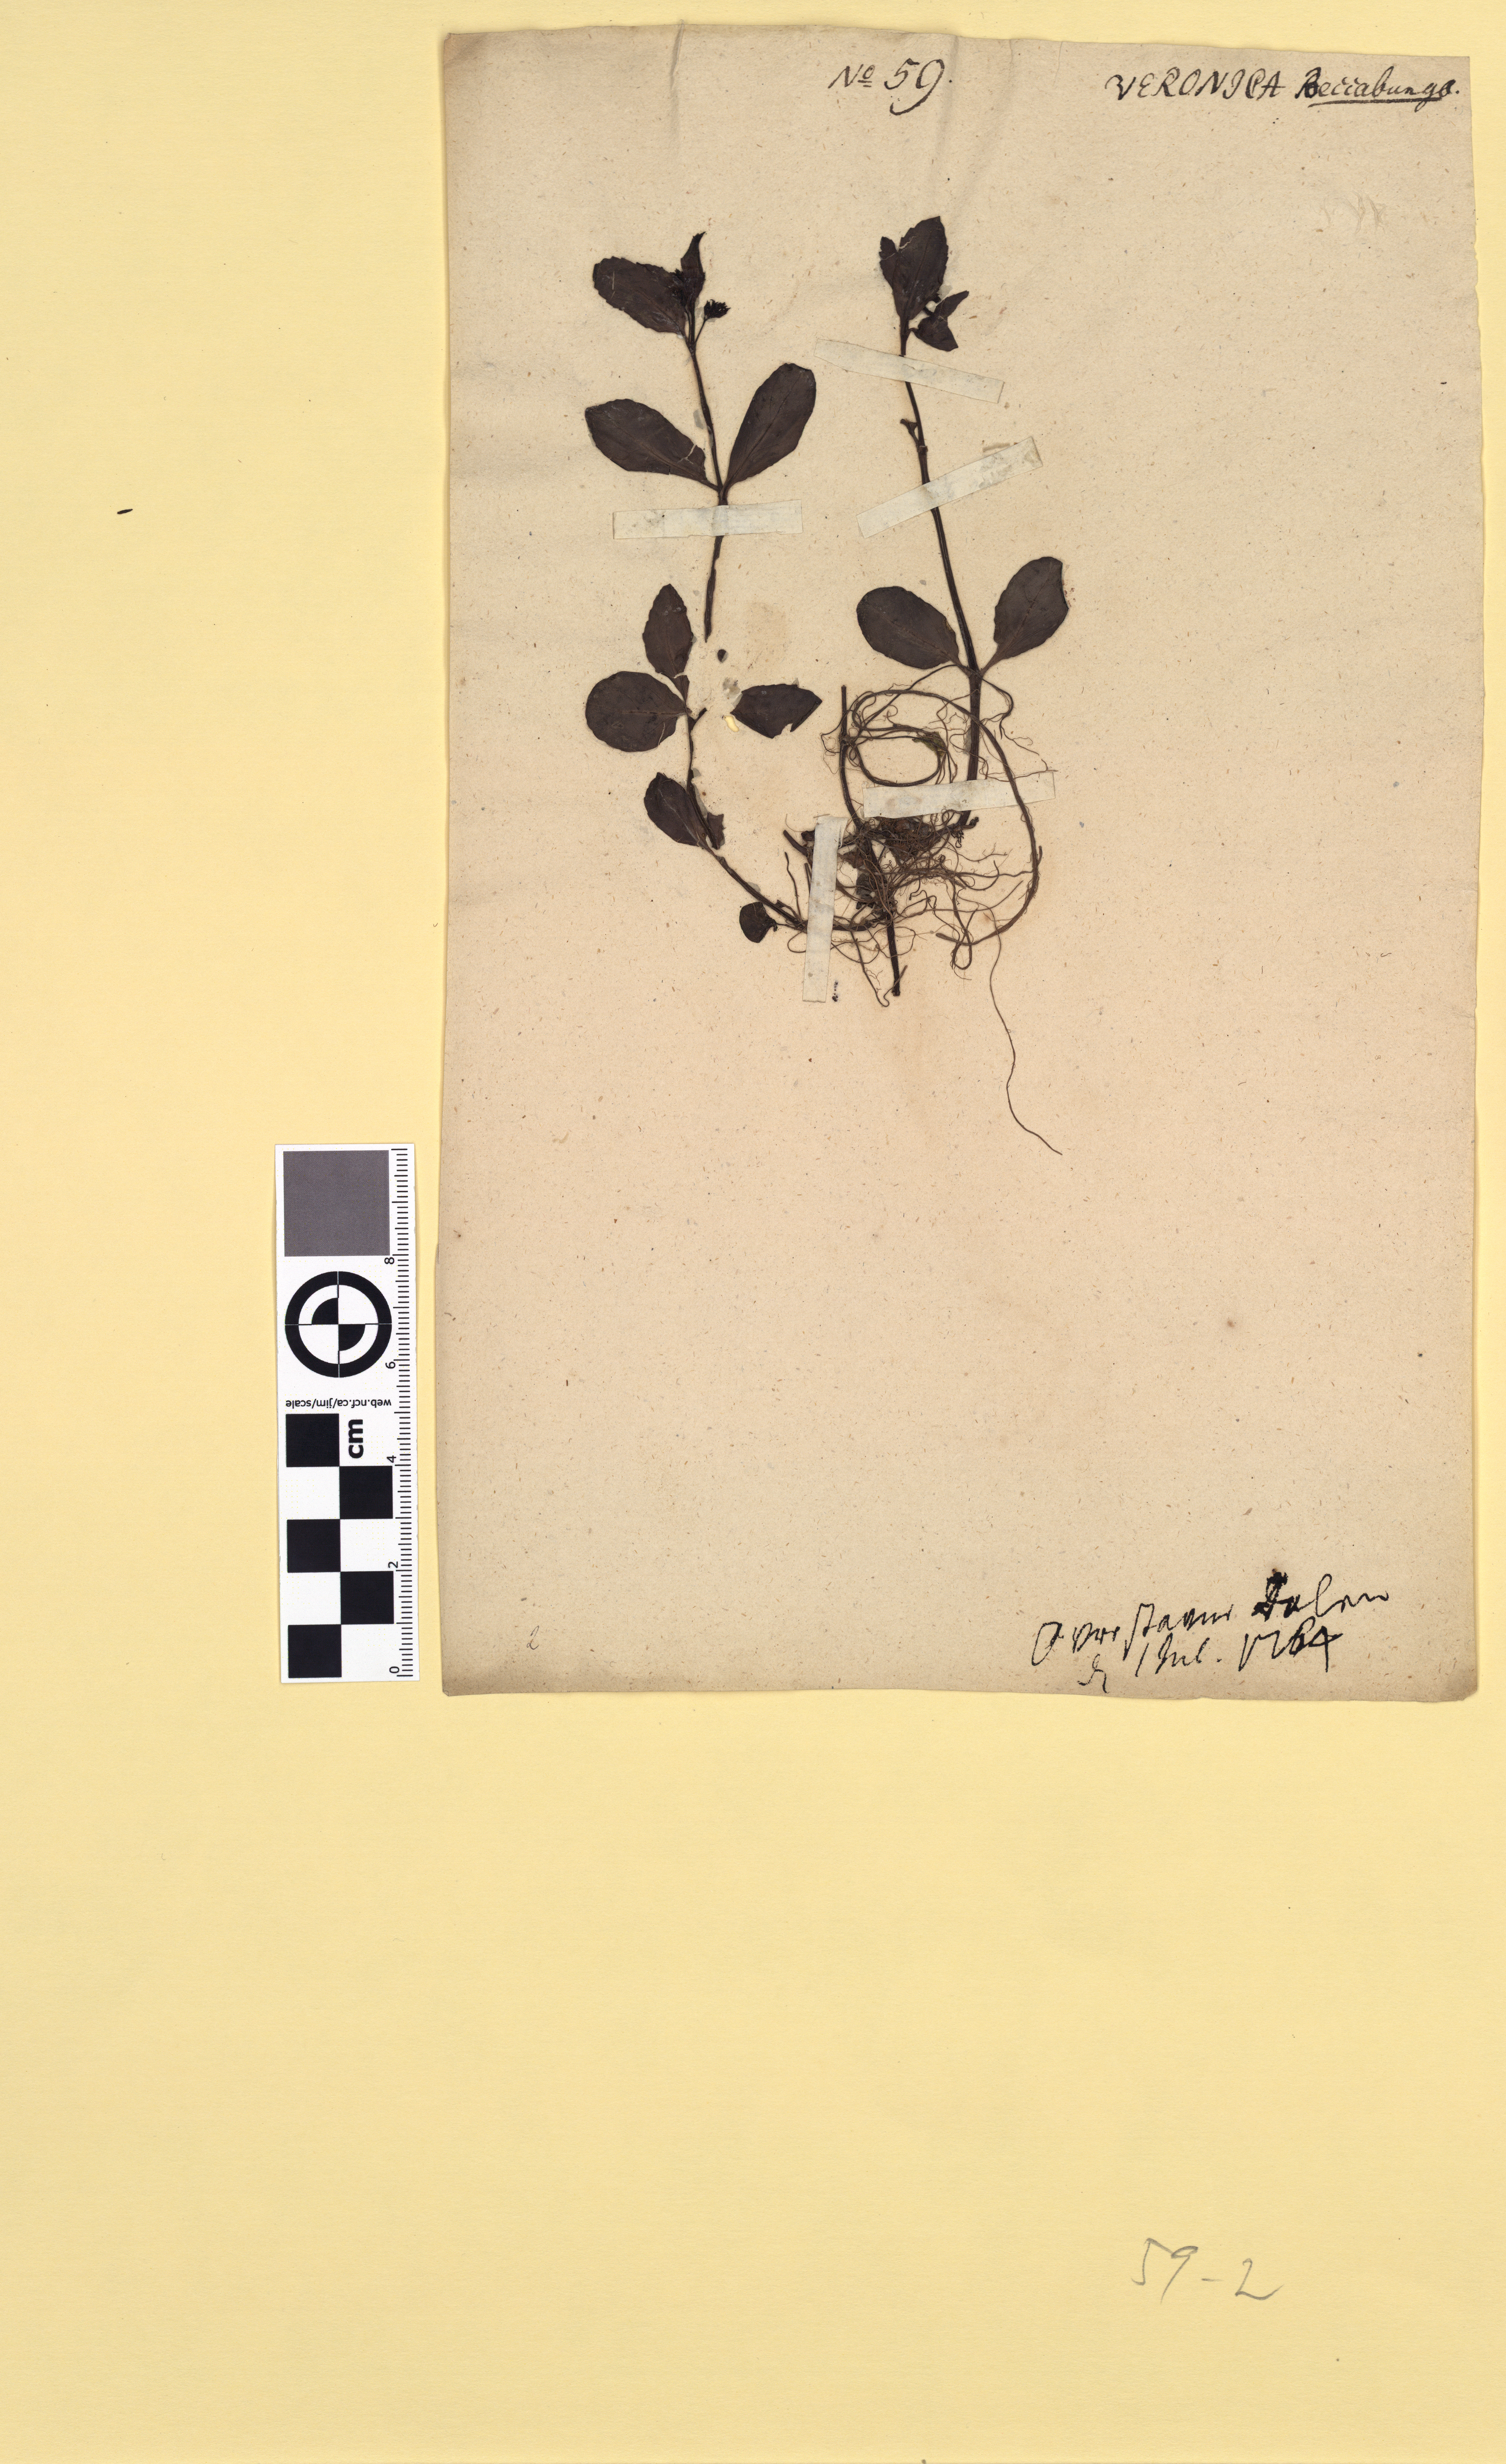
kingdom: Plantae
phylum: Tracheophyta
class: Magnoliopsida
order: Lamiales
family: Plantaginaceae
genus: Veronica
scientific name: Veronica beccabunga
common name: Brooklime
